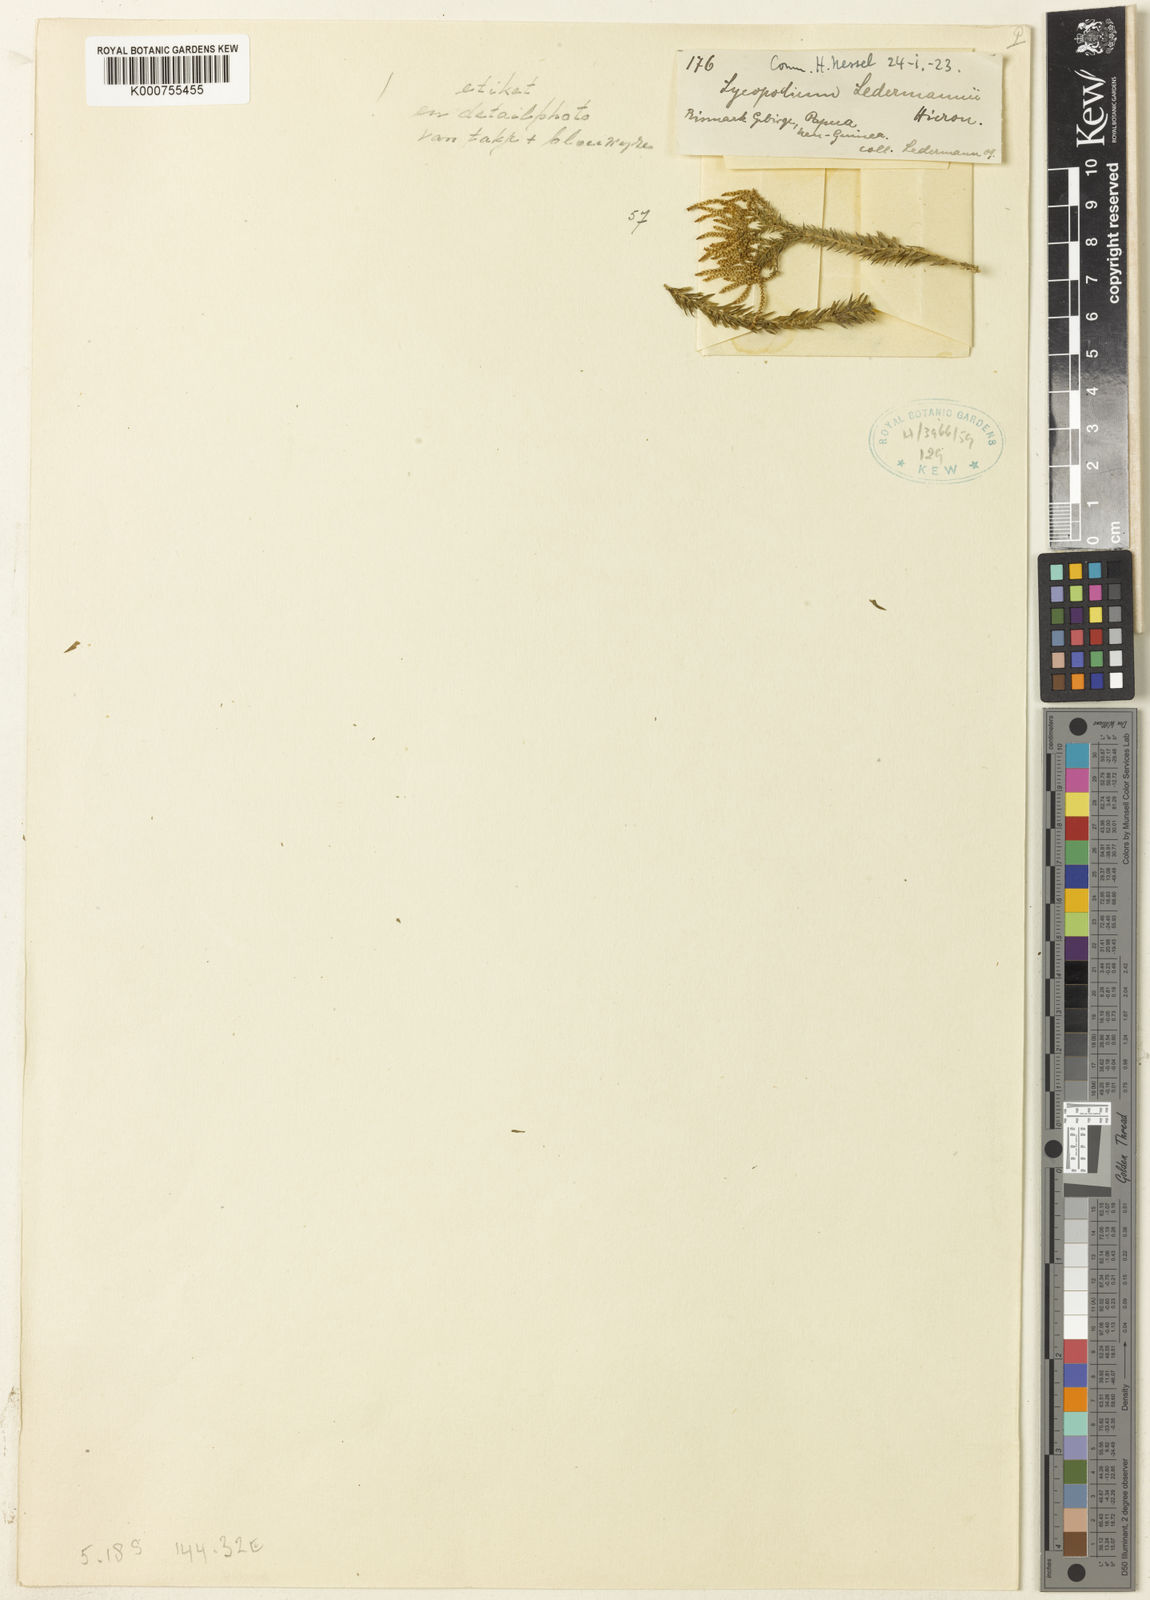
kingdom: Plantae
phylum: Tracheophyta
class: Lycopodiopsida
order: Lycopodiales
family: Lycopodiaceae
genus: Phlegmariurus
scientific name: Phlegmariurus phlegmaria
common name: Coarse tassel-fern
